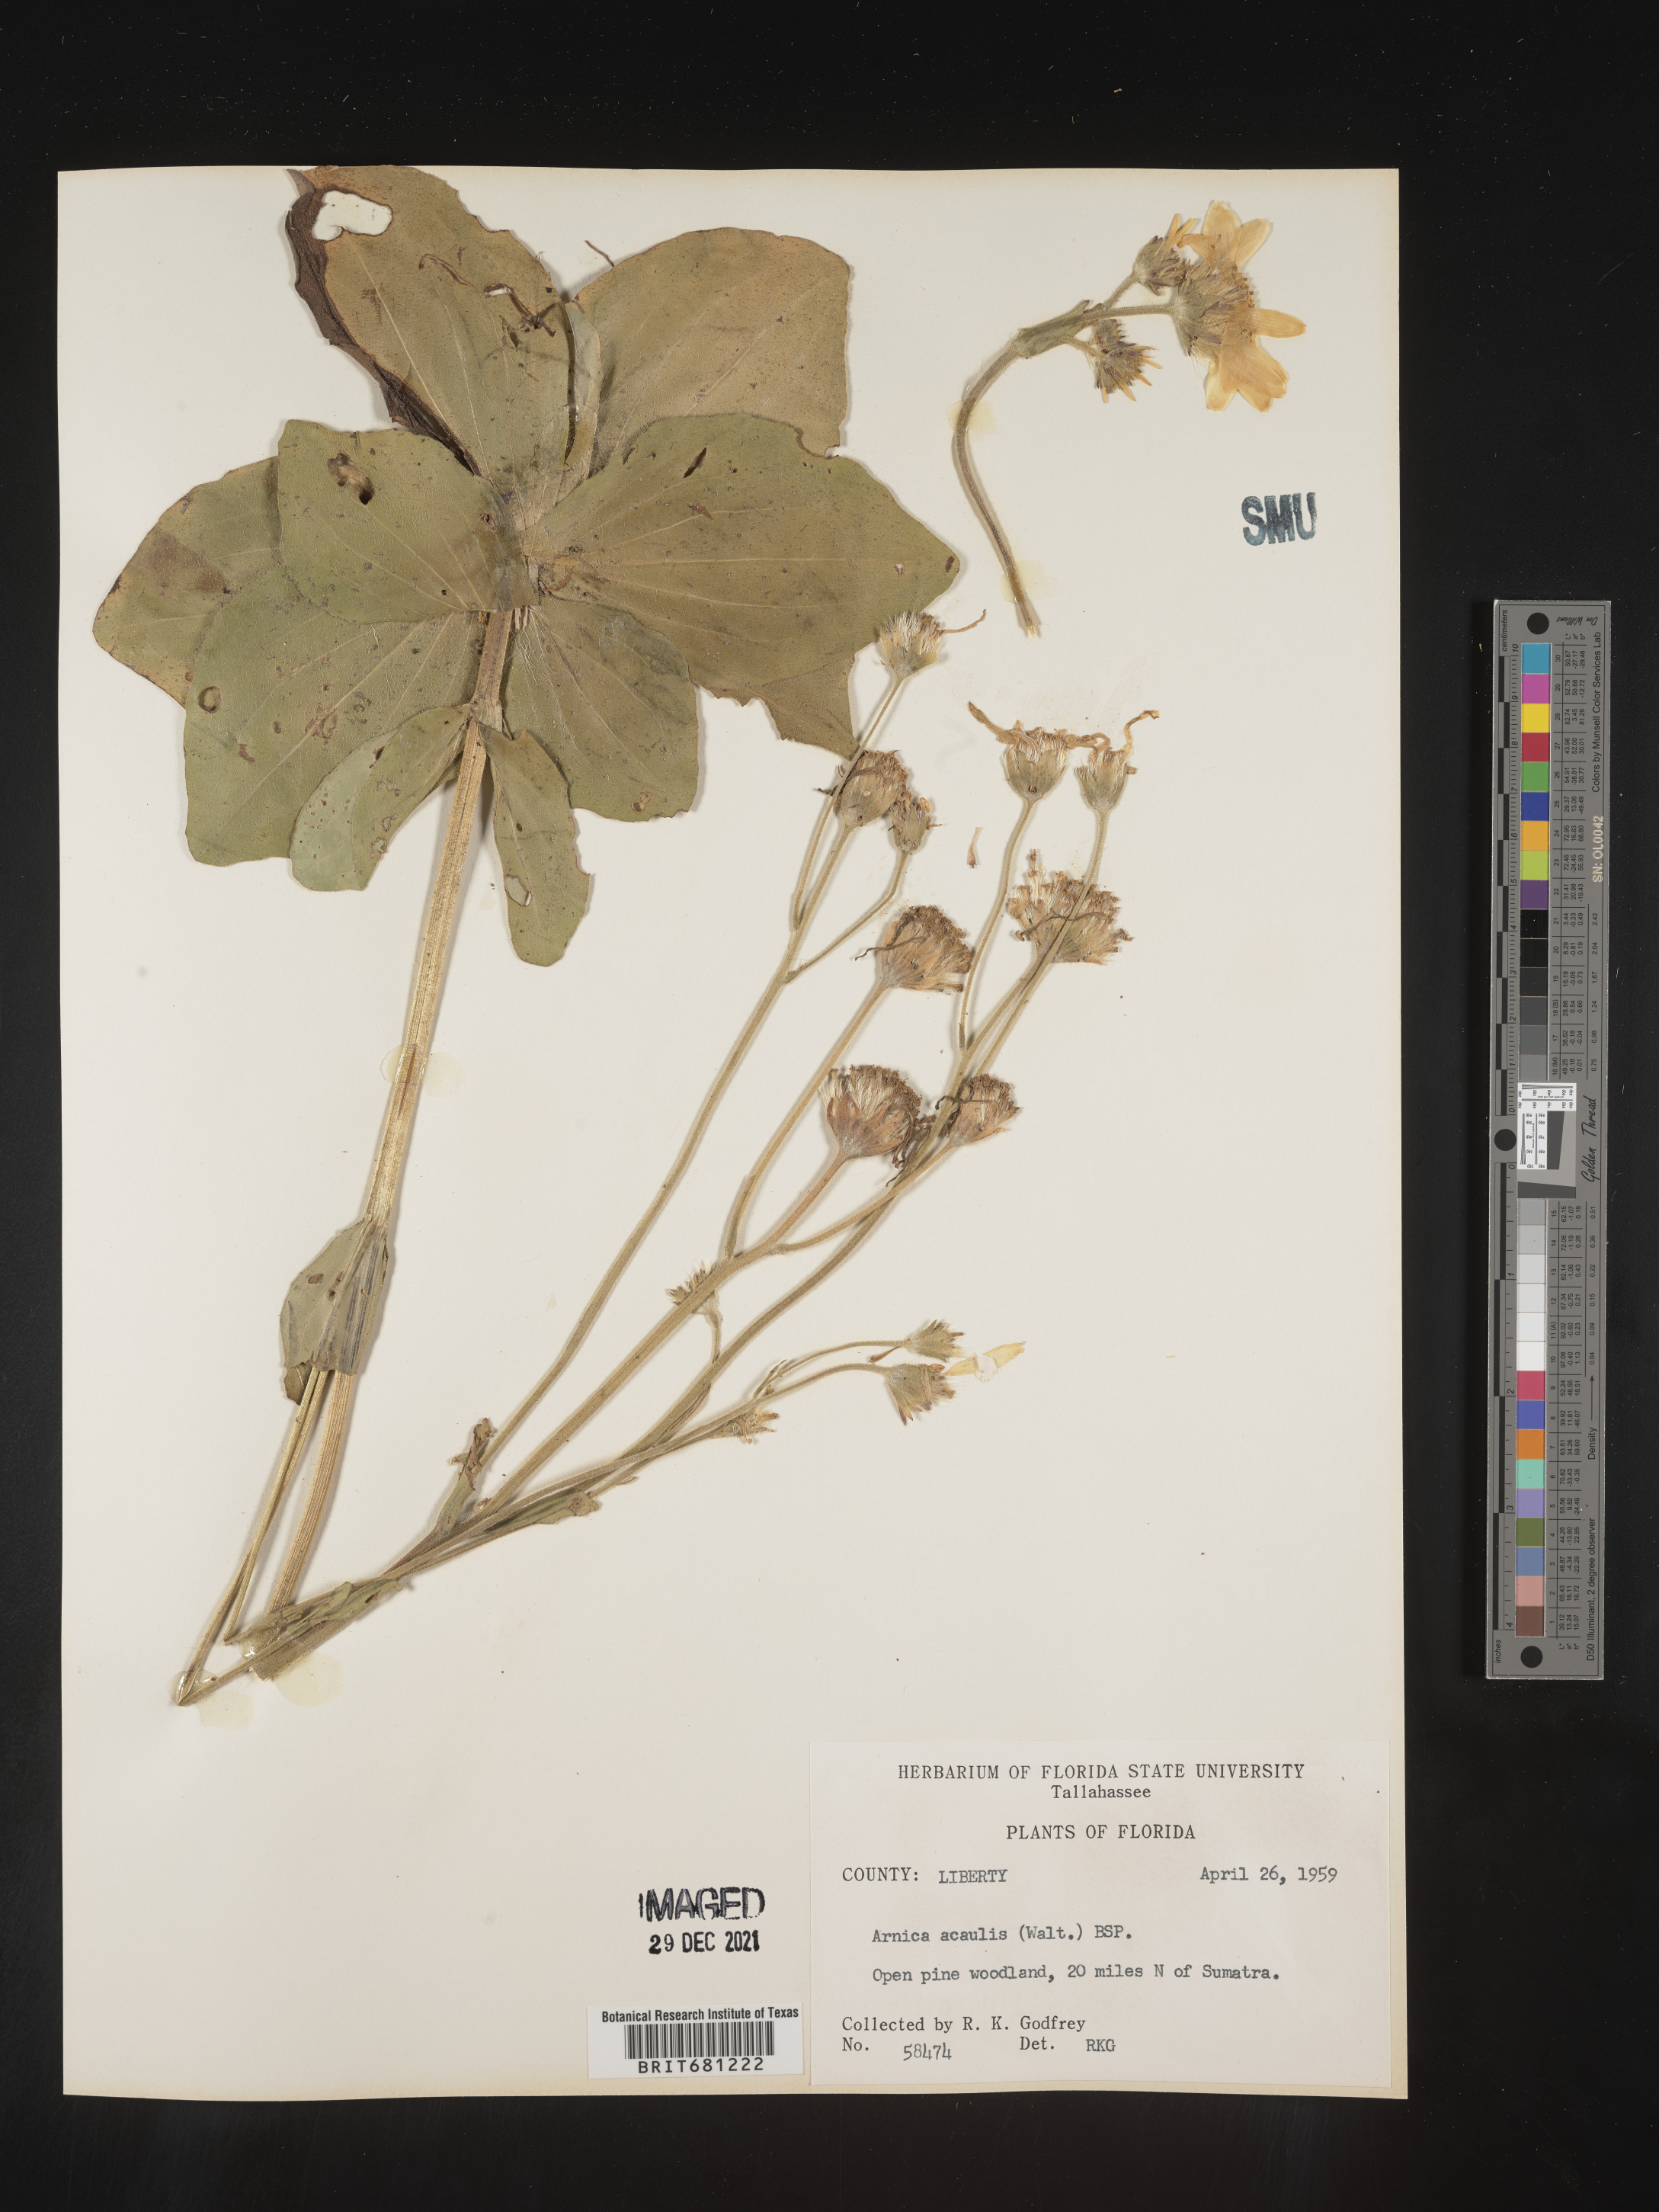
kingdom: Plantae
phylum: Tracheophyta
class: Magnoliopsida
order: Asterales
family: Asteraceae
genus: Arnica
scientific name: Arnica acaulis
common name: Common leopardbane
